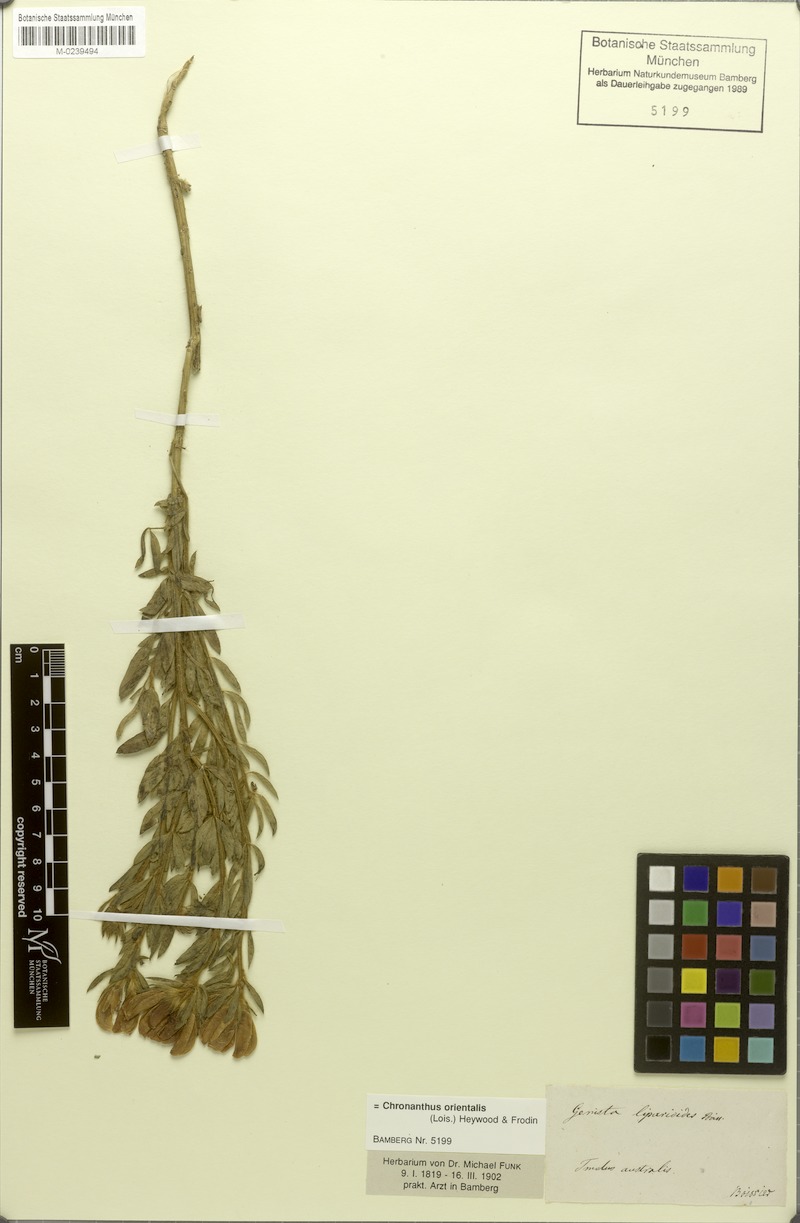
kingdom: Plantae
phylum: Tracheophyta
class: Magnoliopsida
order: Fabales
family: Fabaceae
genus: Cytisus
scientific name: Cytisus orientalis
